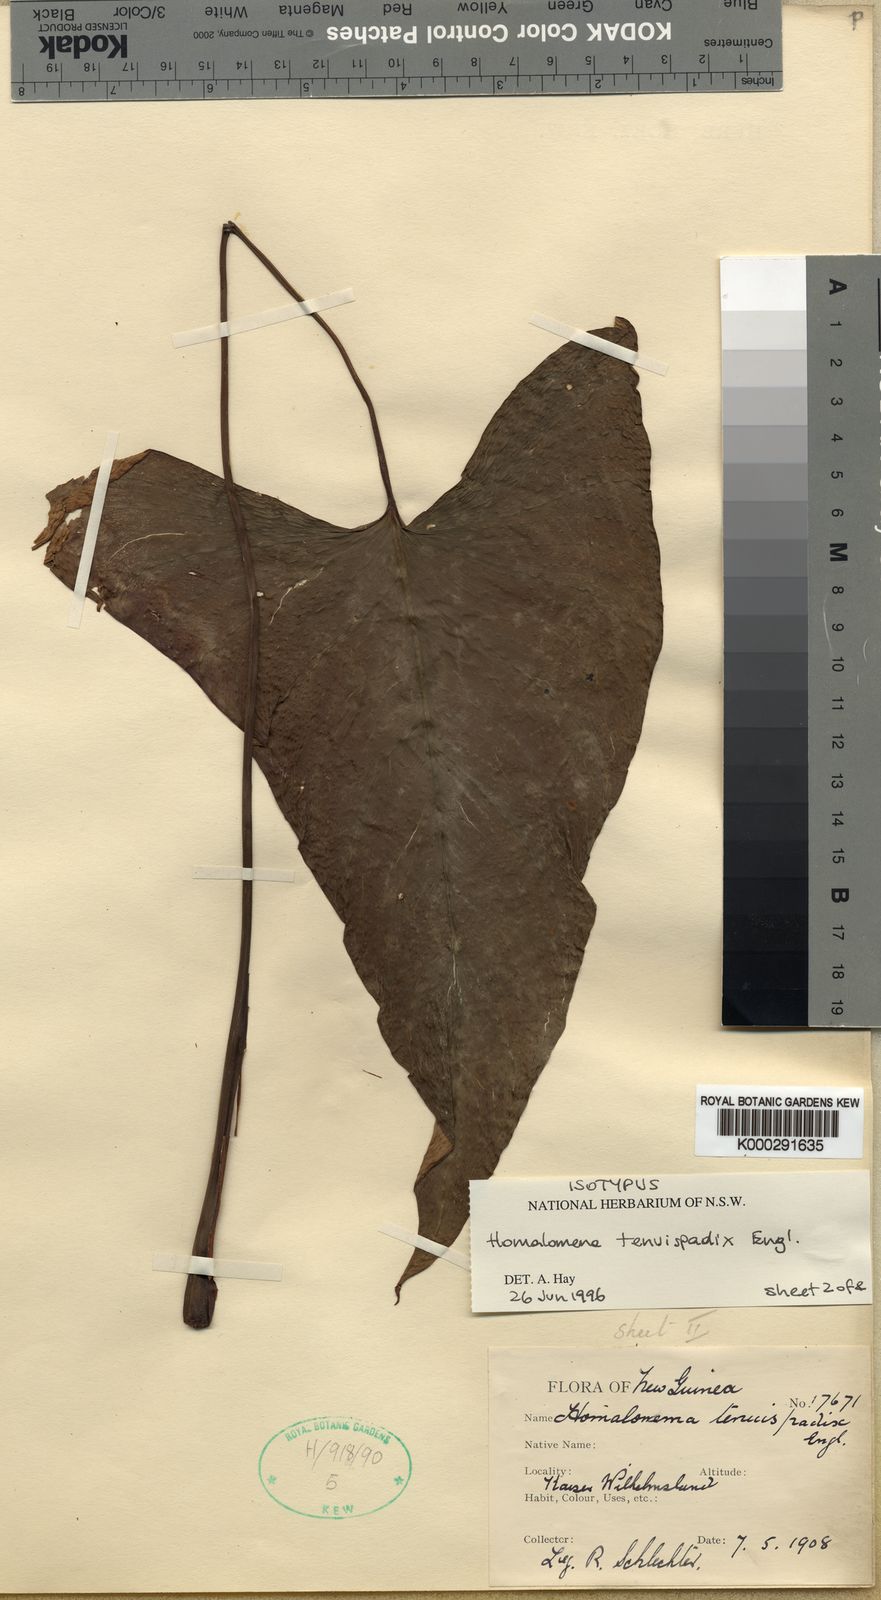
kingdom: Plantae
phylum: Tracheophyta
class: Liliopsida
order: Alismatales
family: Araceae
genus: Homalomena
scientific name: Homalomena tenuispadix
